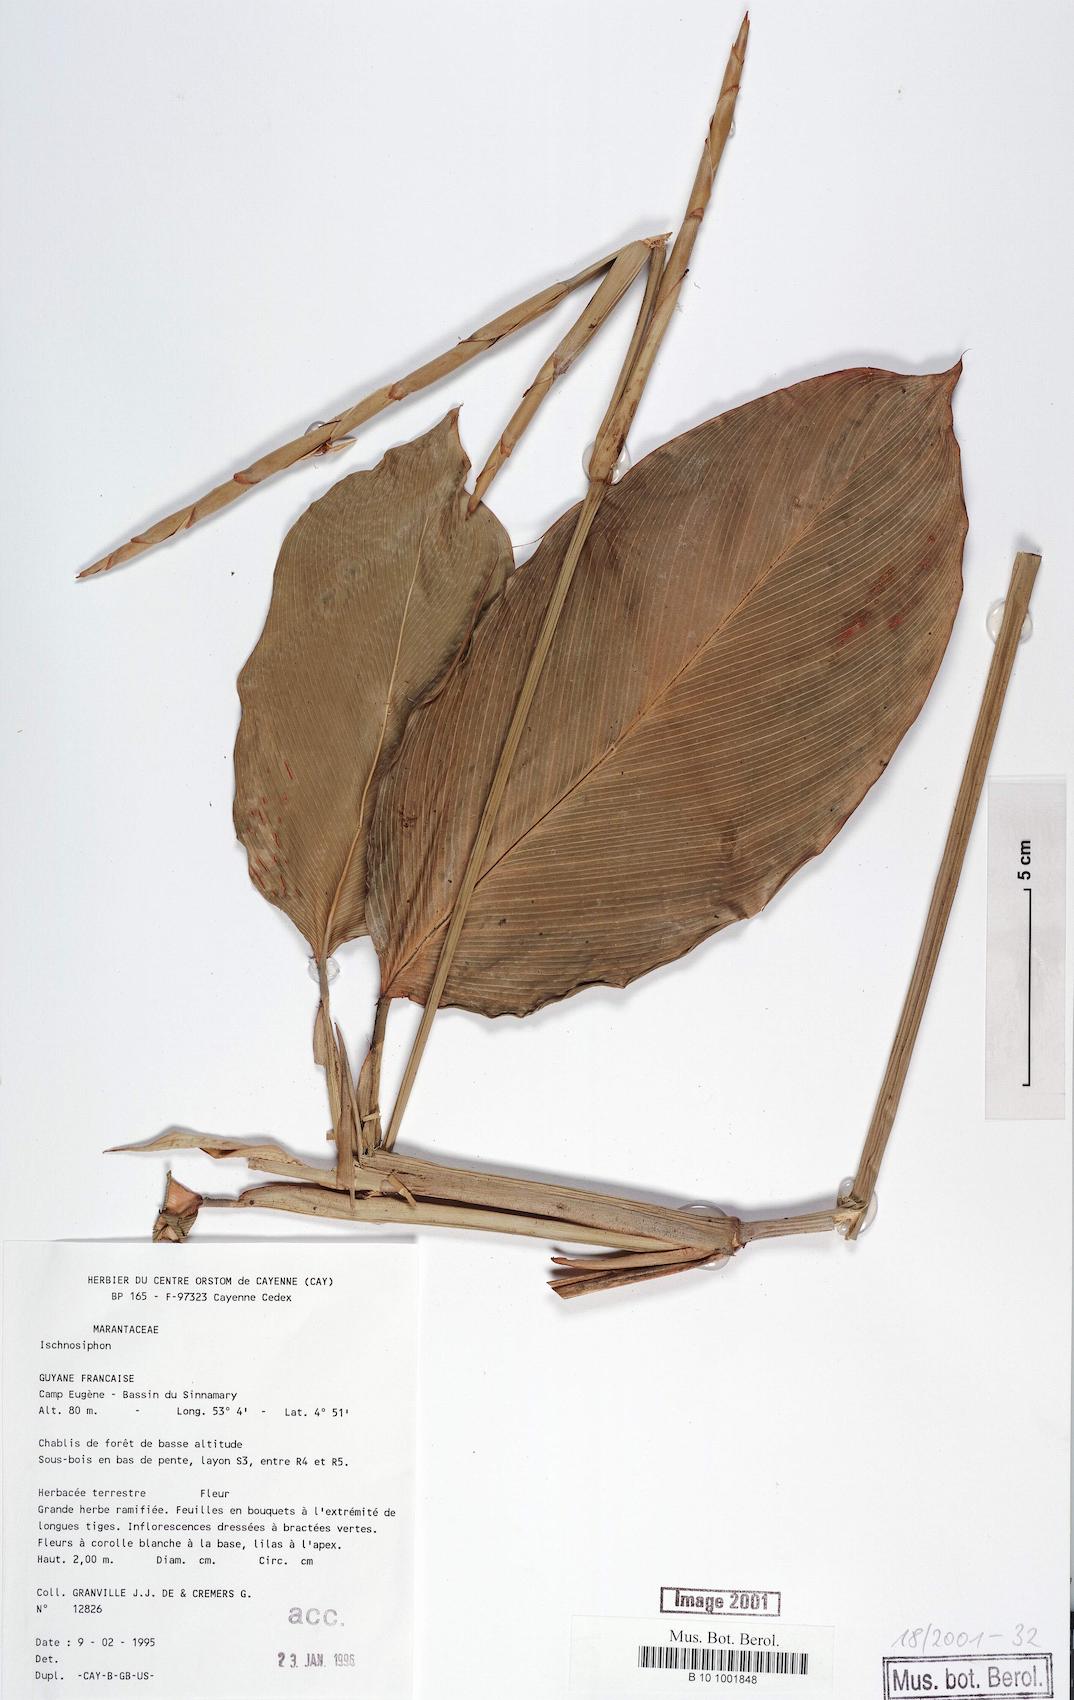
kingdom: Plantae
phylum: Tracheophyta
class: Liliopsida
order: Zingiberales
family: Marantaceae
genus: Ischnosiphon
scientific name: Ischnosiphon
